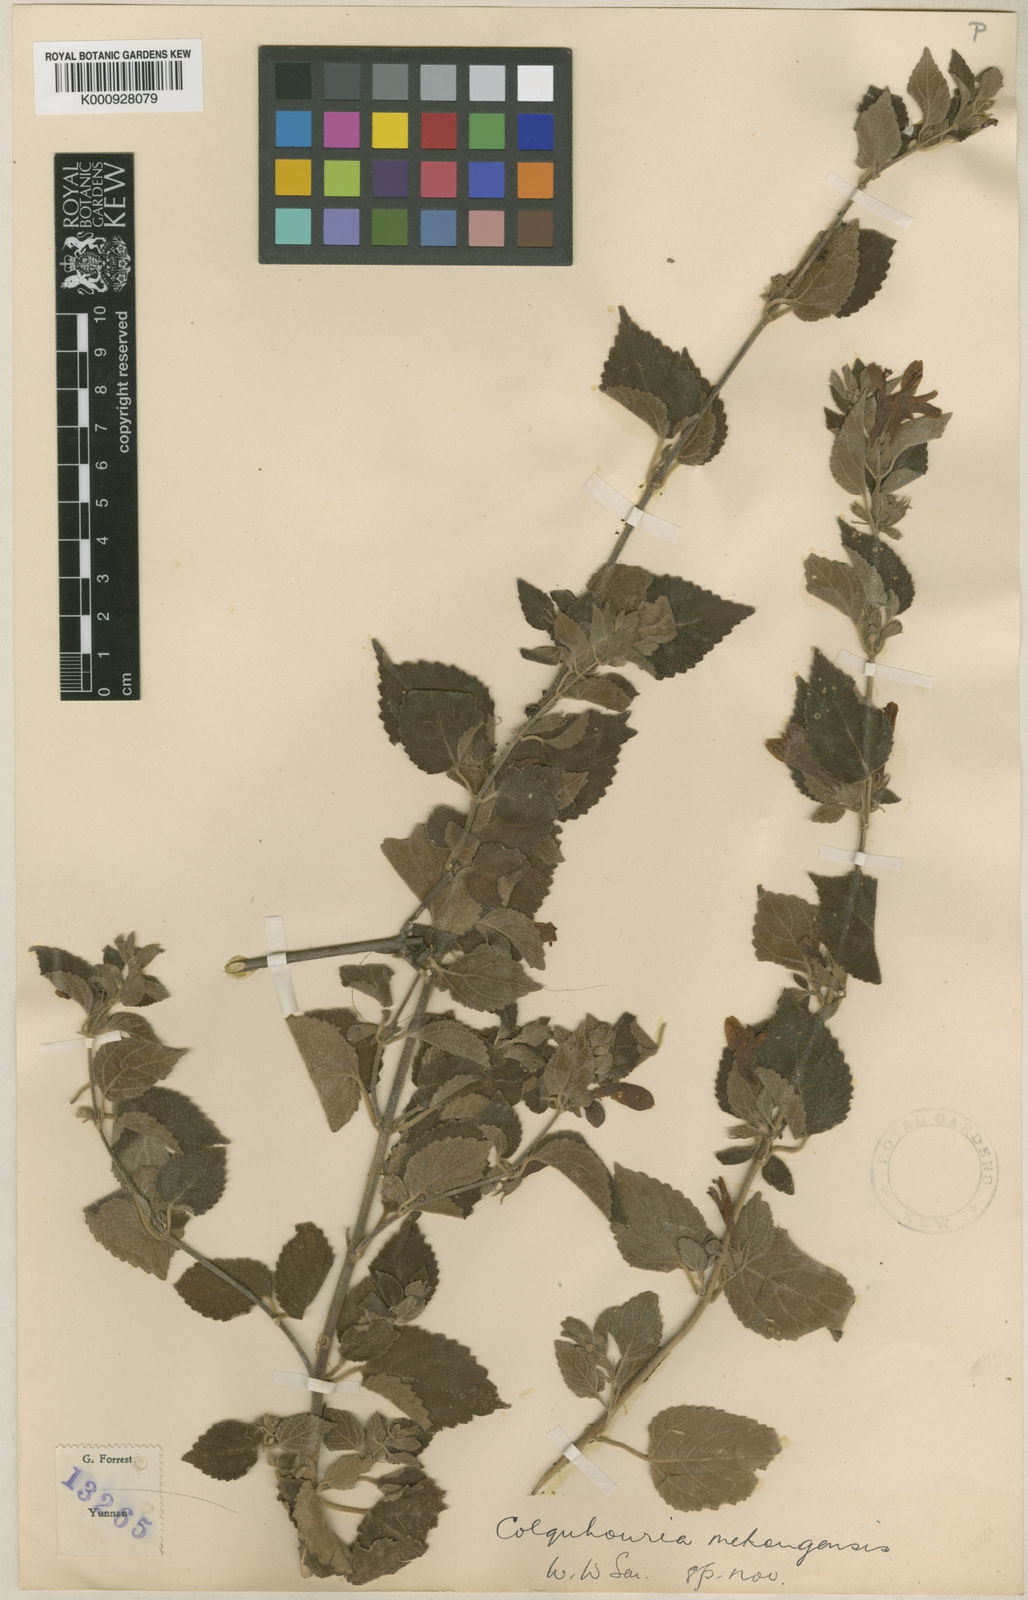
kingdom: Plantae
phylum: Tracheophyta
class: Magnoliopsida
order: Lamiales
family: Lamiaceae
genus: Colquhounia
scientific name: Colquhounia compta
